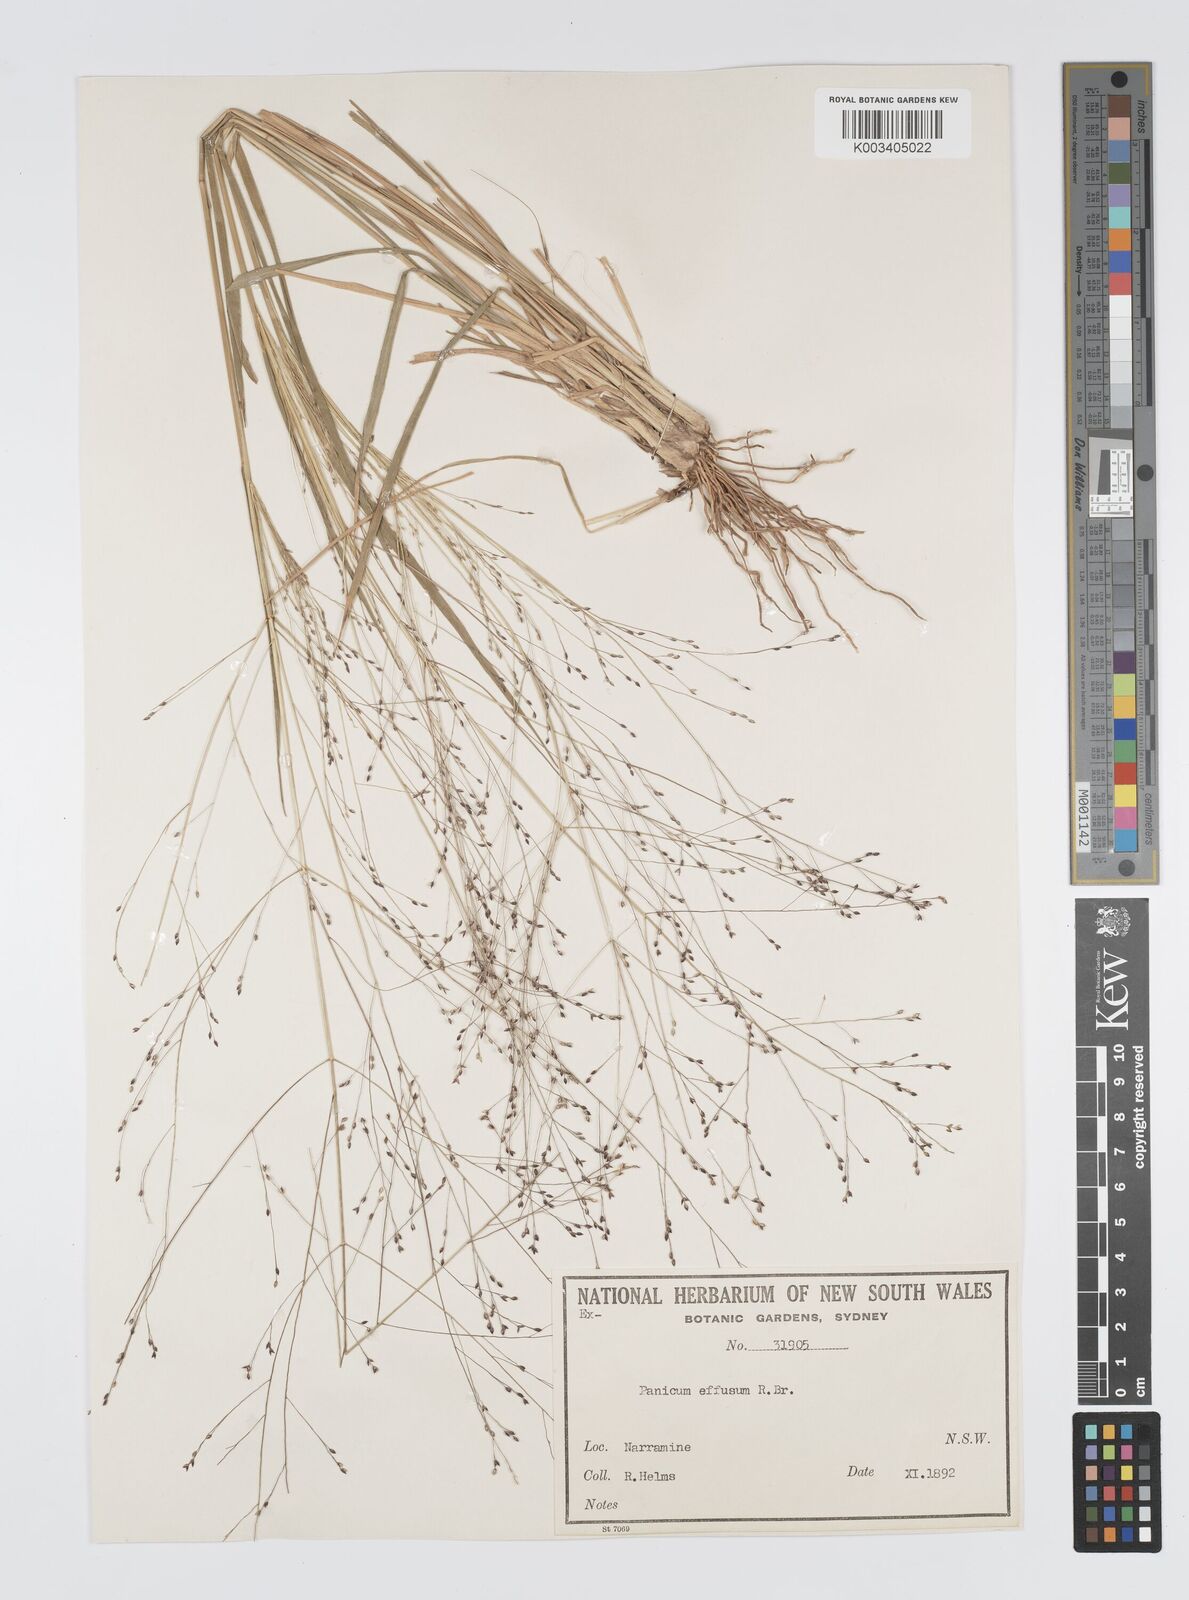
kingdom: Plantae
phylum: Tracheophyta
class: Liliopsida
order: Poales
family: Poaceae
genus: Panicum
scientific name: Panicum effusum
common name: Hairy panic grass
